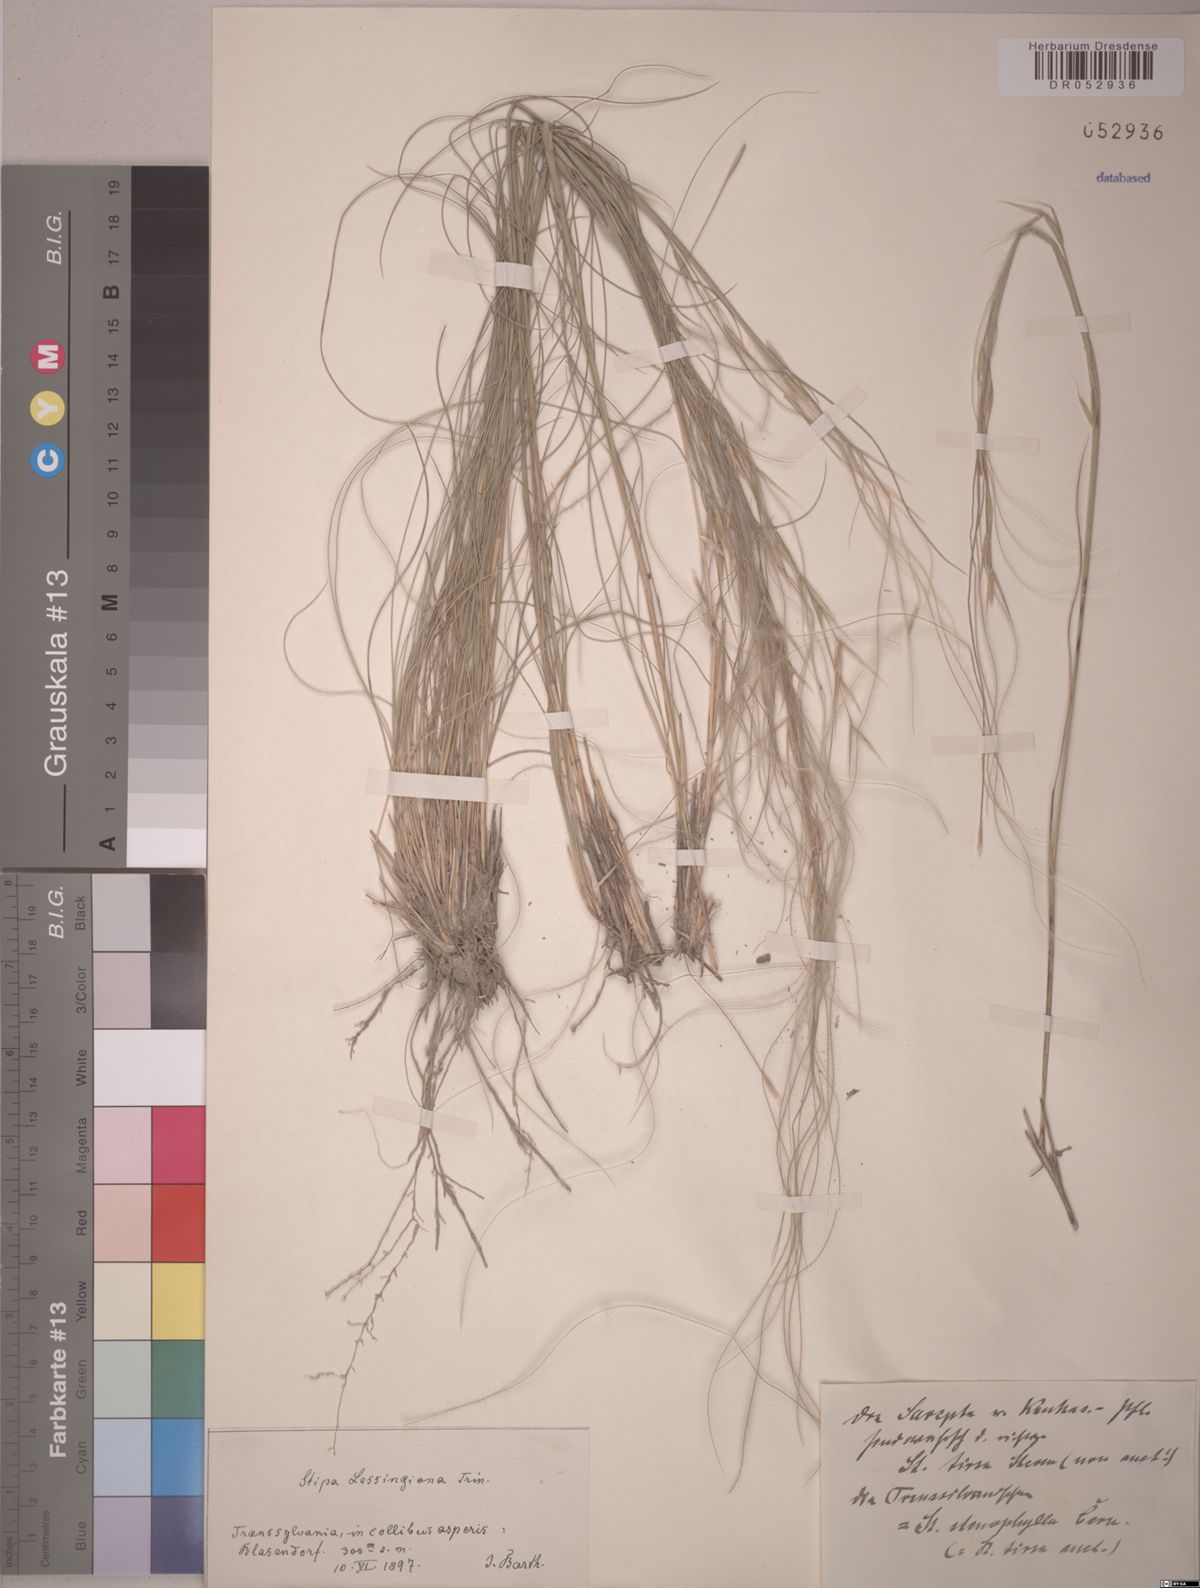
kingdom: Plantae
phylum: Tracheophyta
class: Liliopsida
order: Poales
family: Poaceae
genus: Stipa
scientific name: Stipa lessingiana
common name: Needle grass
